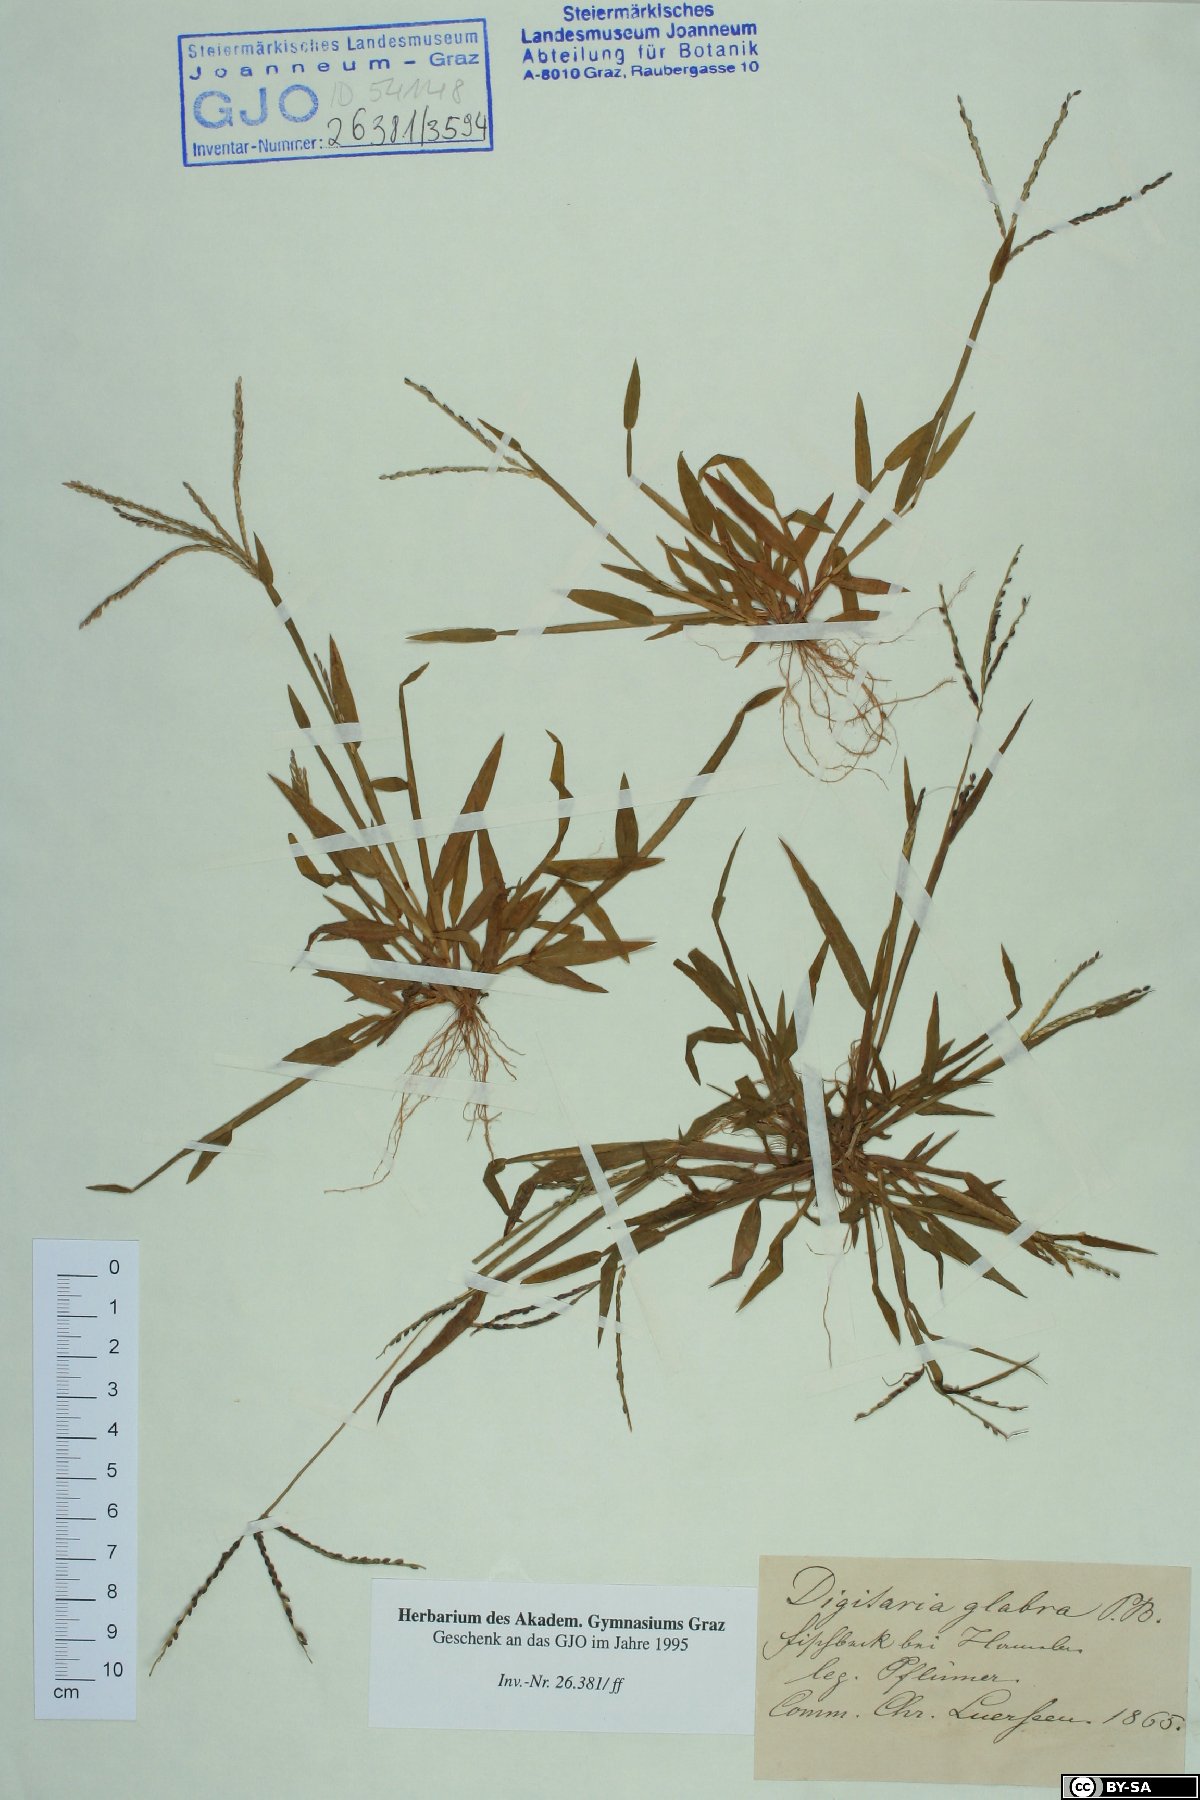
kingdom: Plantae
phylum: Tracheophyta
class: Liliopsida
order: Poales
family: Poaceae
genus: Digitaria
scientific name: Digitaria ischaemum
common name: Smooth crabgrass
